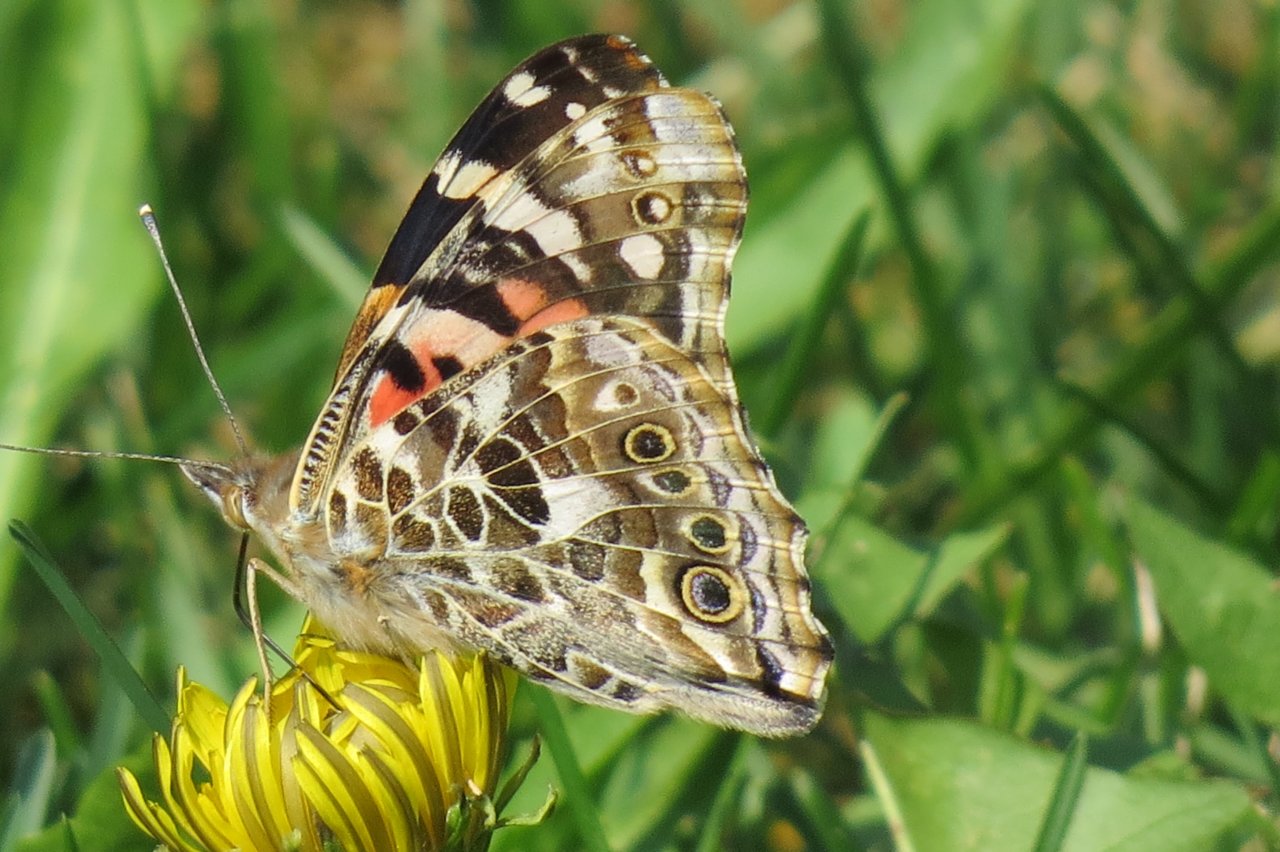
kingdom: Animalia
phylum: Arthropoda
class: Insecta
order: Lepidoptera
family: Nymphalidae
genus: Vanessa
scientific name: Vanessa cardui
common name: Painted Lady
